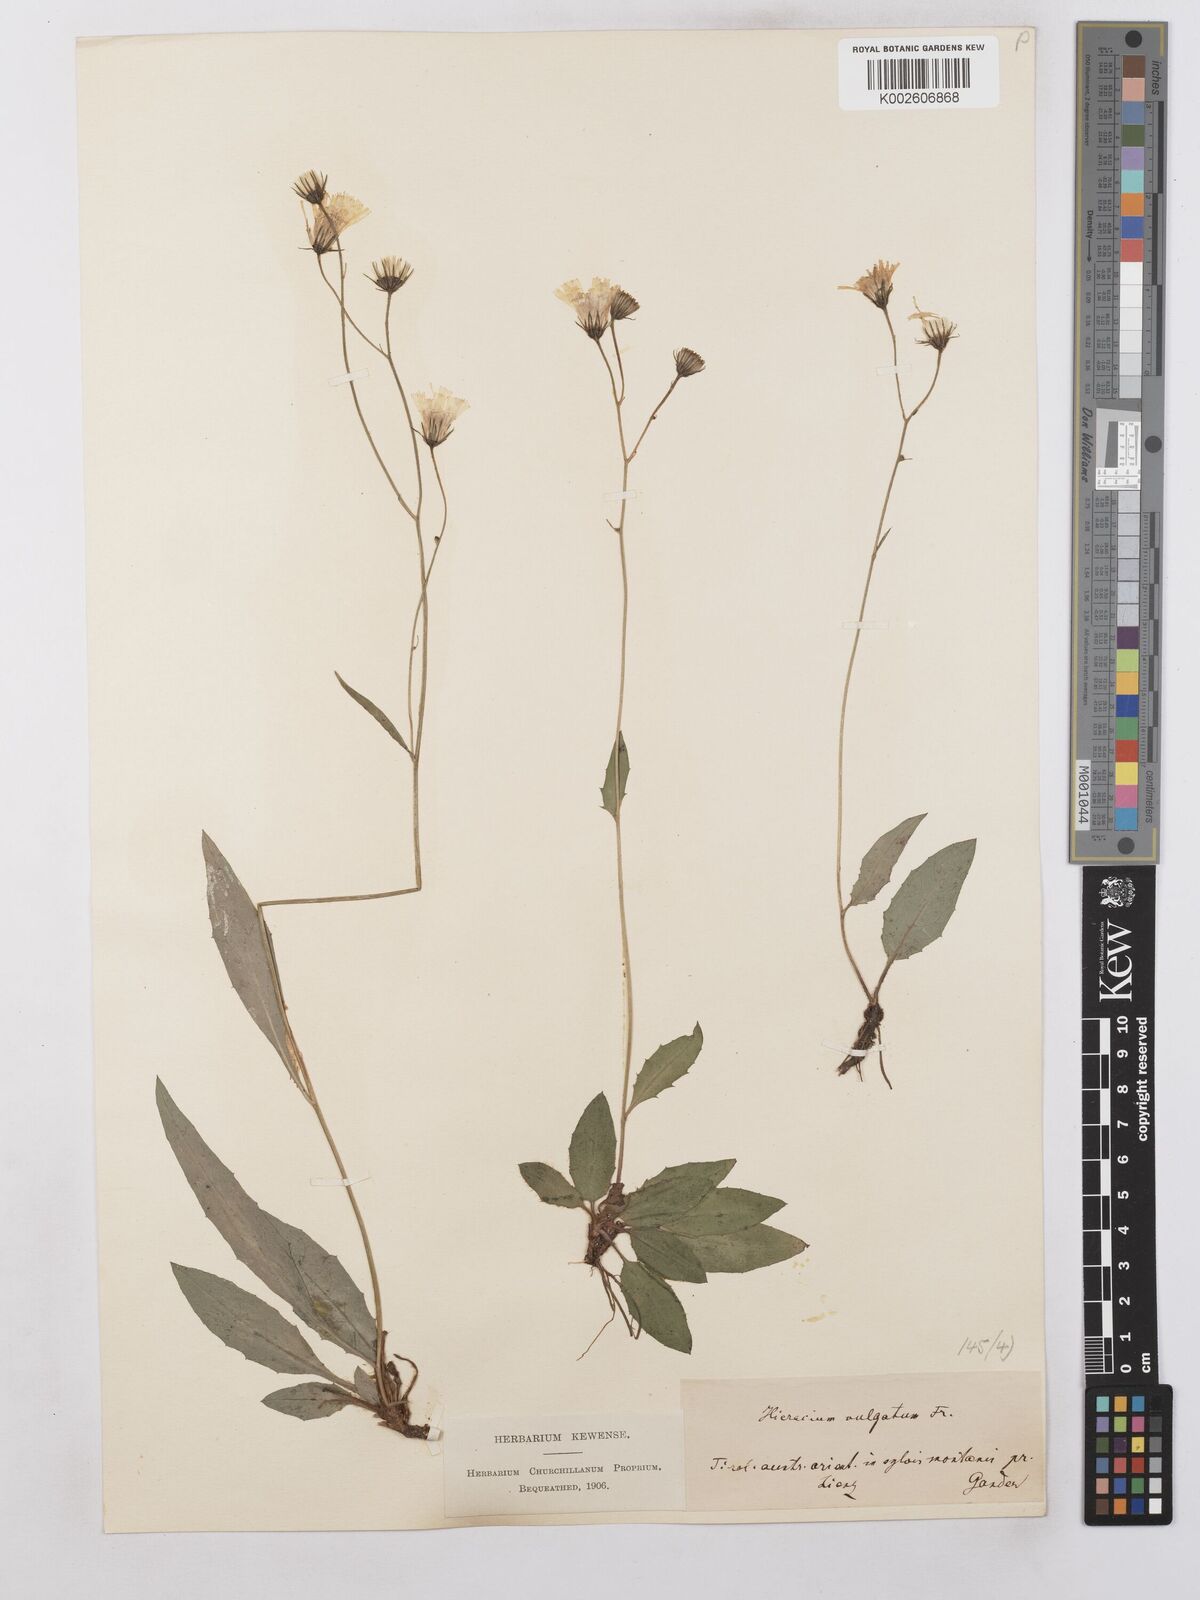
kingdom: Plantae
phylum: Tracheophyta
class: Magnoliopsida
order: Asterales
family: Asteraceae
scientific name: Asteraceae
